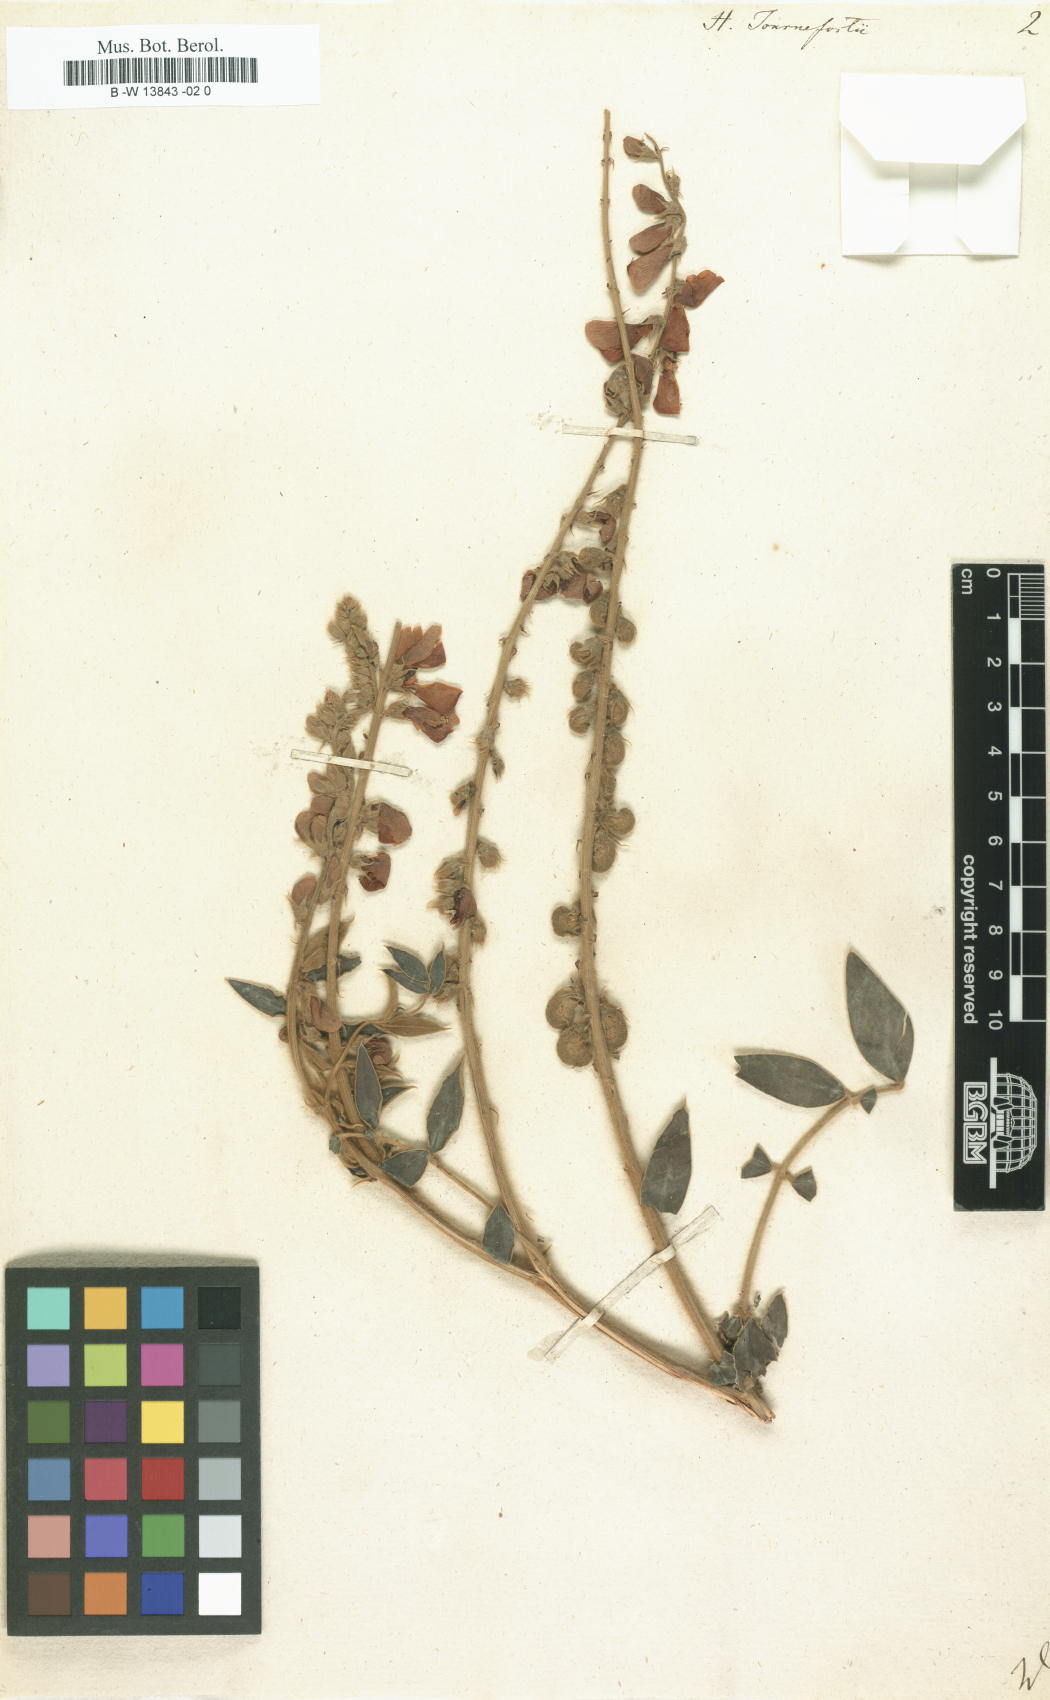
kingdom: Plantae
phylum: Tracheophyta
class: Magnoliopsida
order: Fabales
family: Fabaceae
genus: Onobrychis
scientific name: Onobrychis tournefortii
